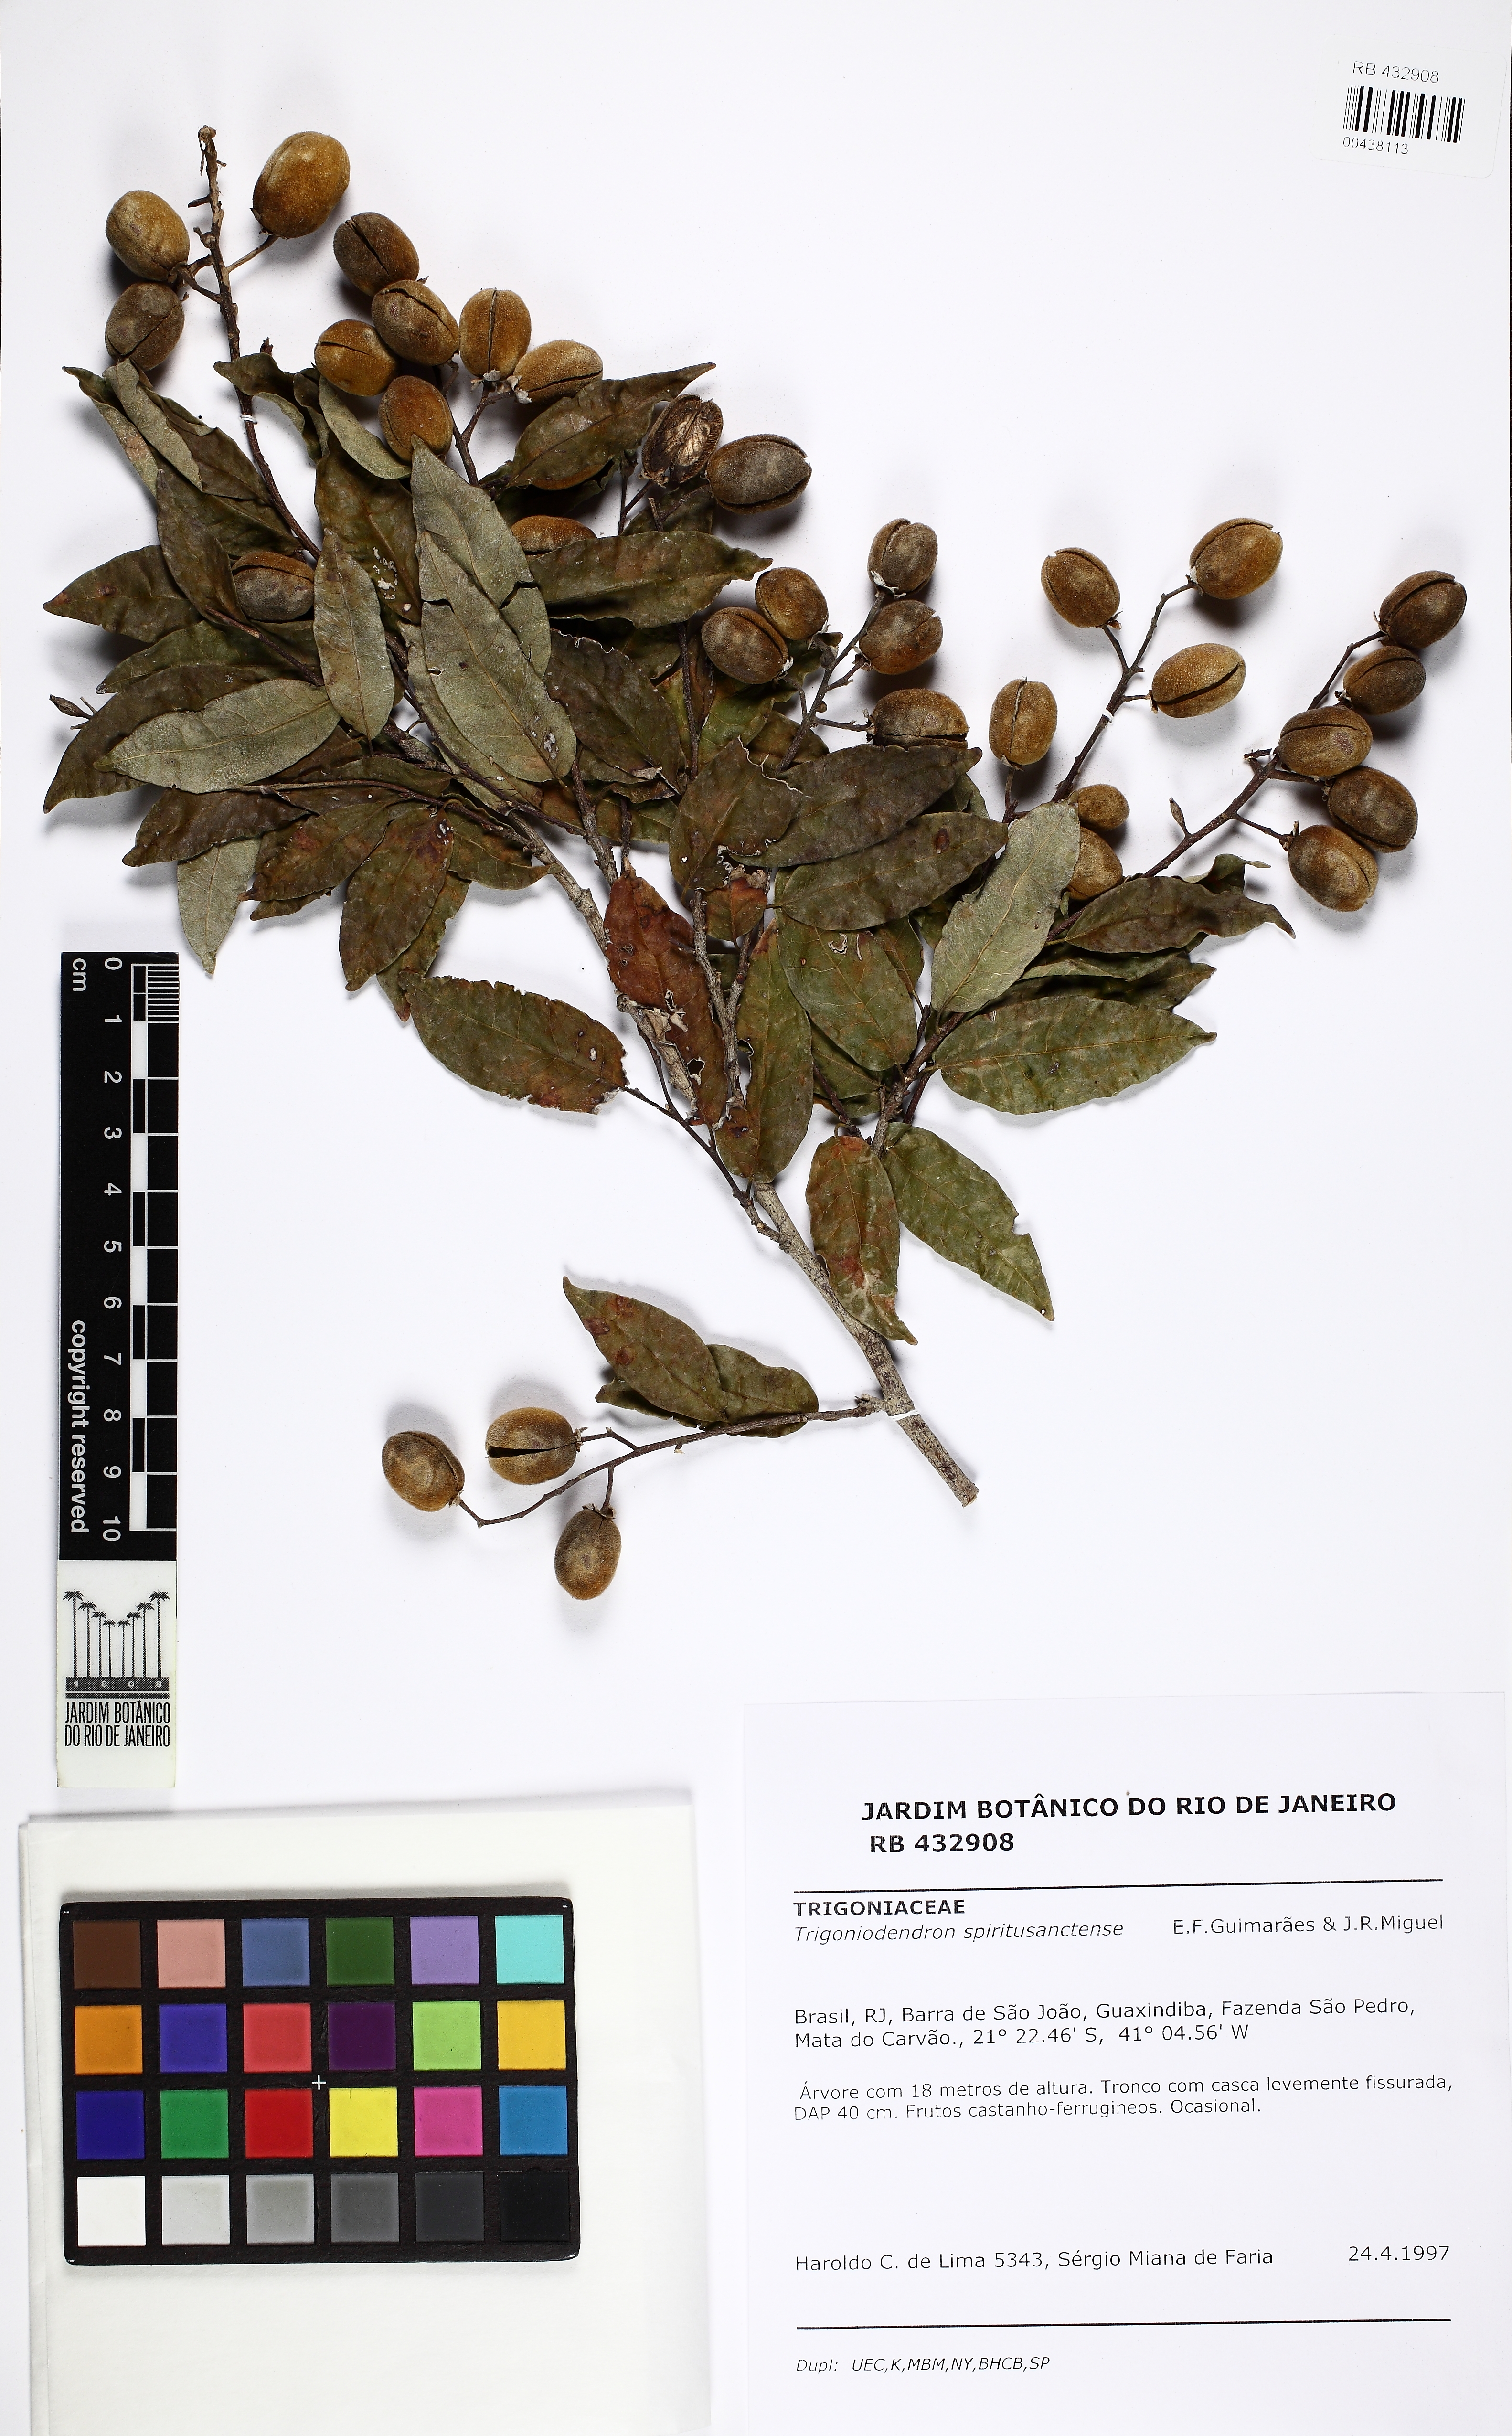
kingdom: Plantae
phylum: Tracheophyta
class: Magnoliopsida
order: Malpighiales
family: Trigoniaceae
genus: Trigoniodendron
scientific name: Trigoniodendron spiritusanctense
